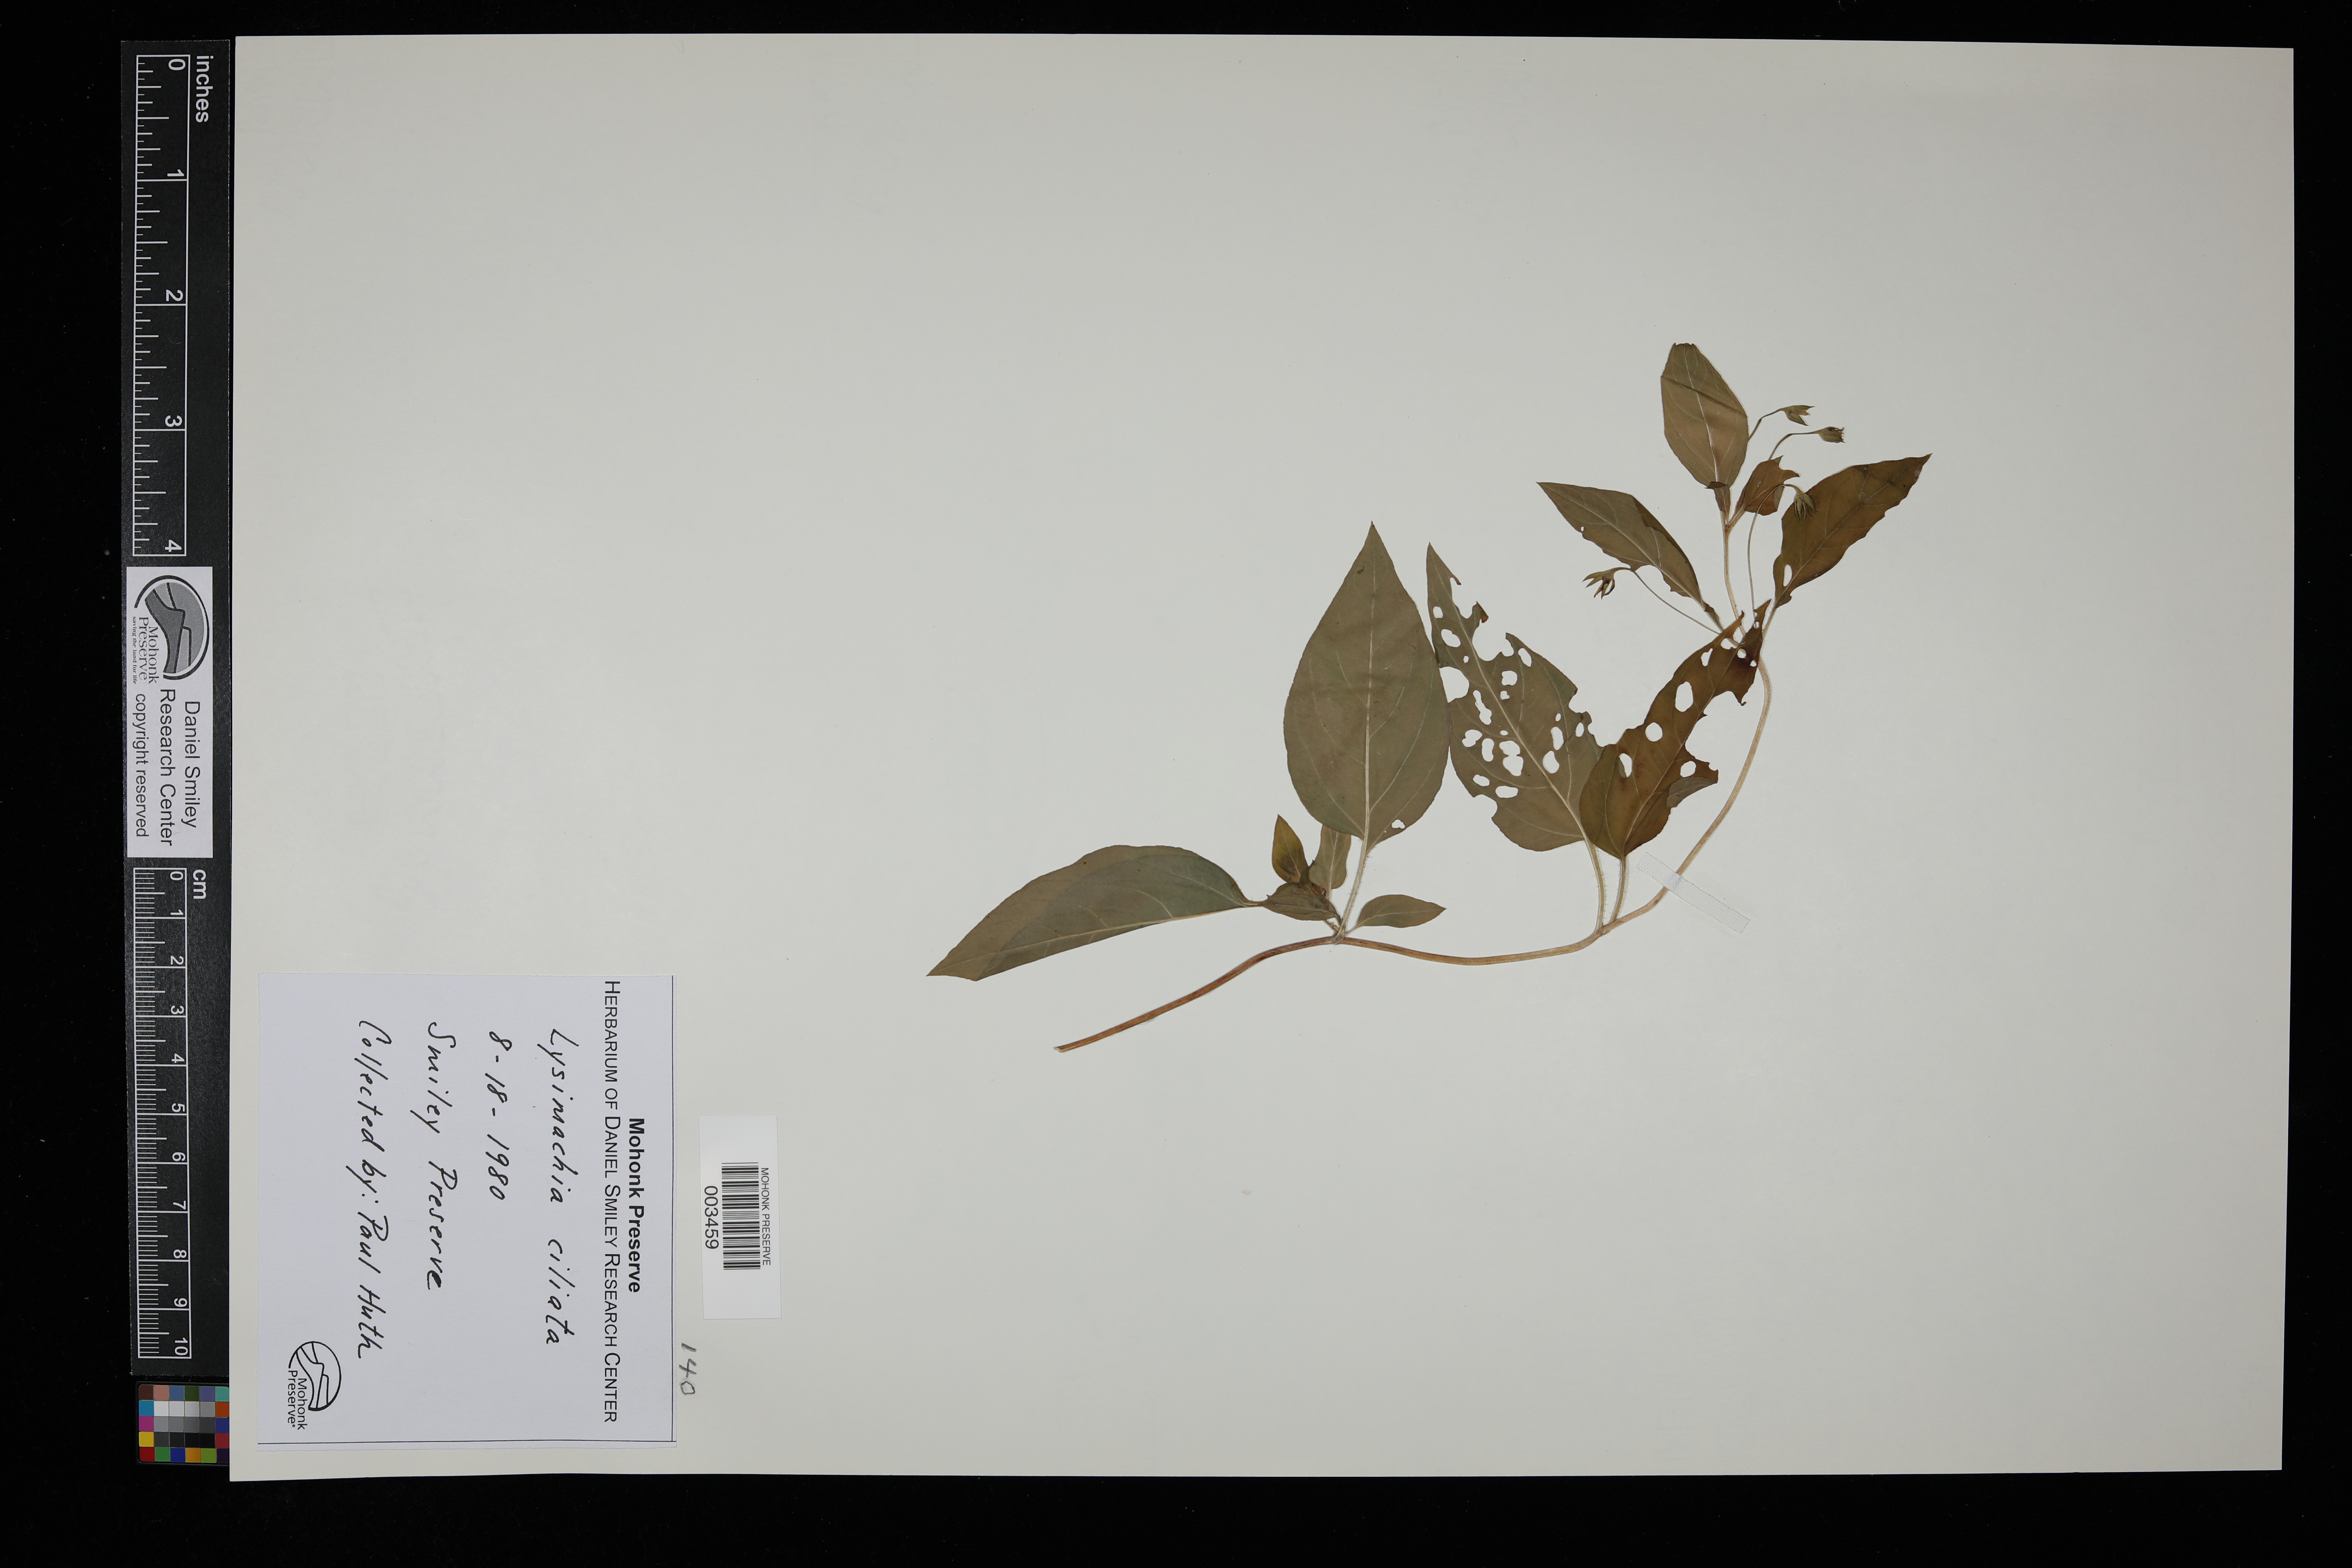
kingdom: Plantae
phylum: Tracheophyta
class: Magnoliopsida
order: Ericales
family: Primulaceae
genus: Lysimachia
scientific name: Lysimachia ciliata
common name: Fringed loosestrife
